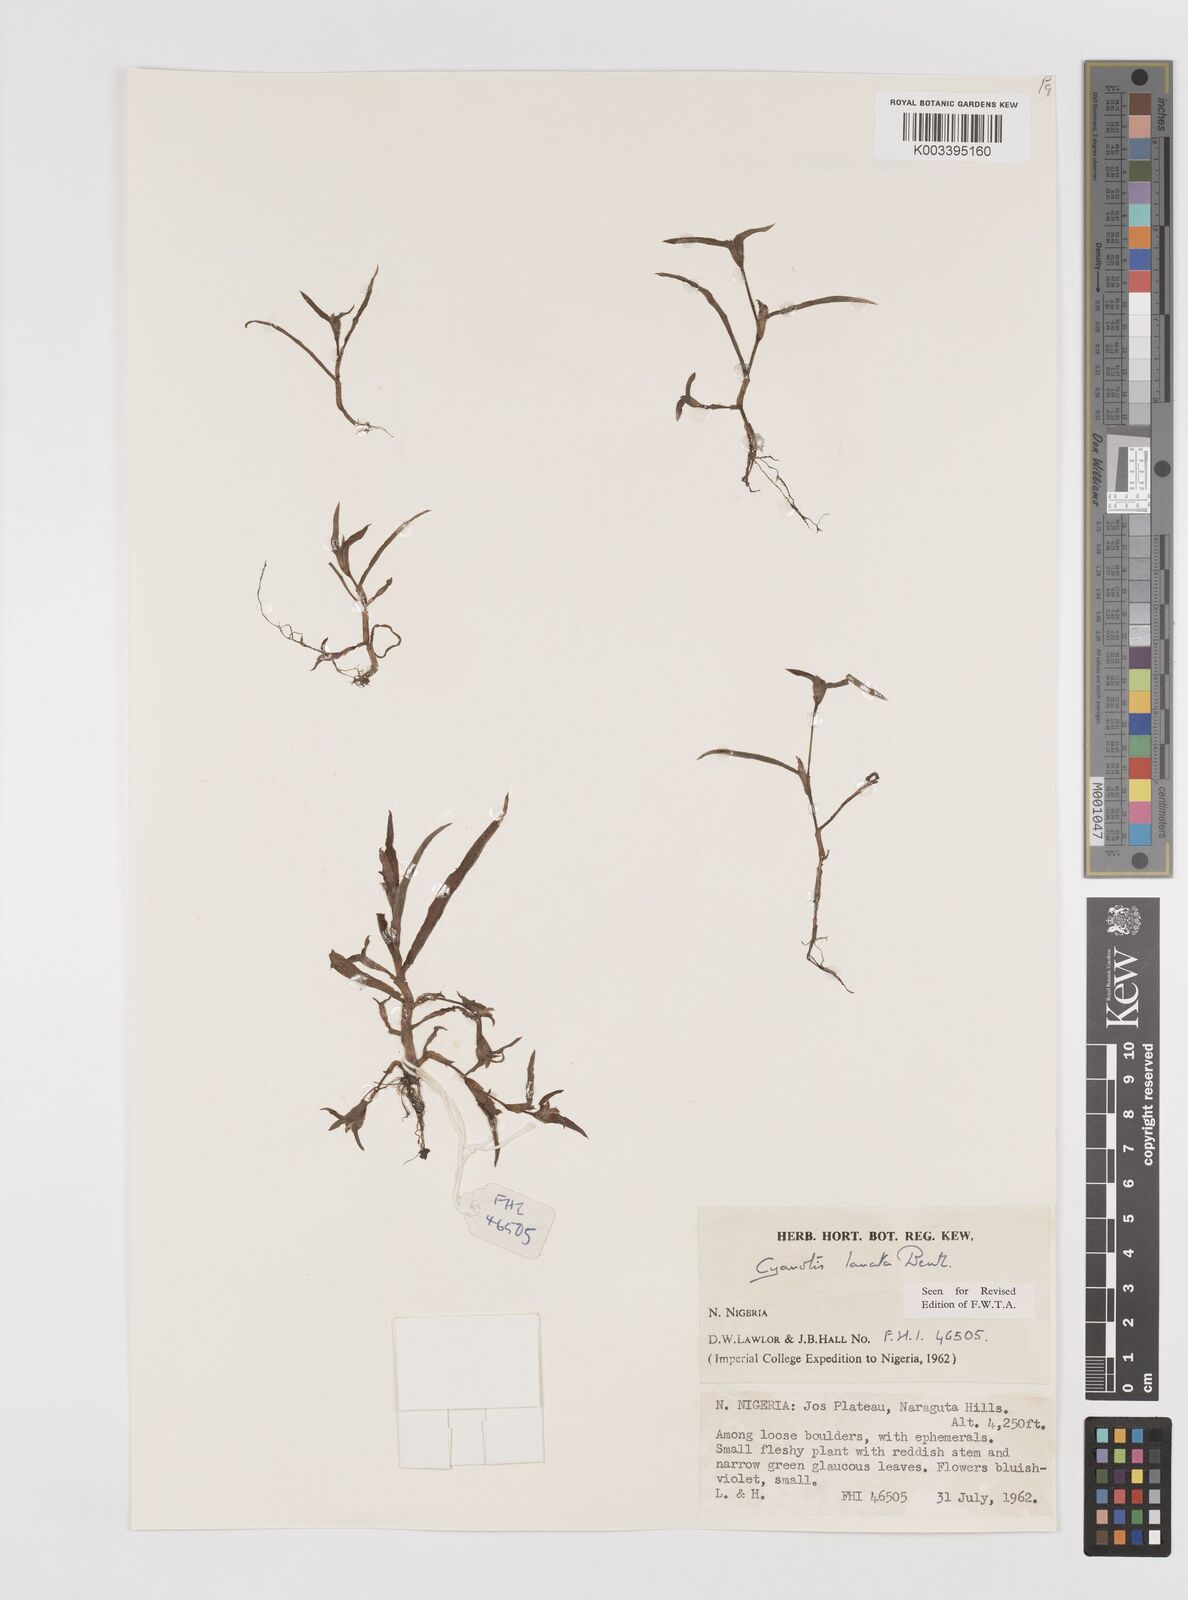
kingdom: Plantae
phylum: Tracheophyta
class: Liliopsida
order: Commelinales
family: Commelinaceae
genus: Cyanotis
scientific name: Cyanotis lanata
